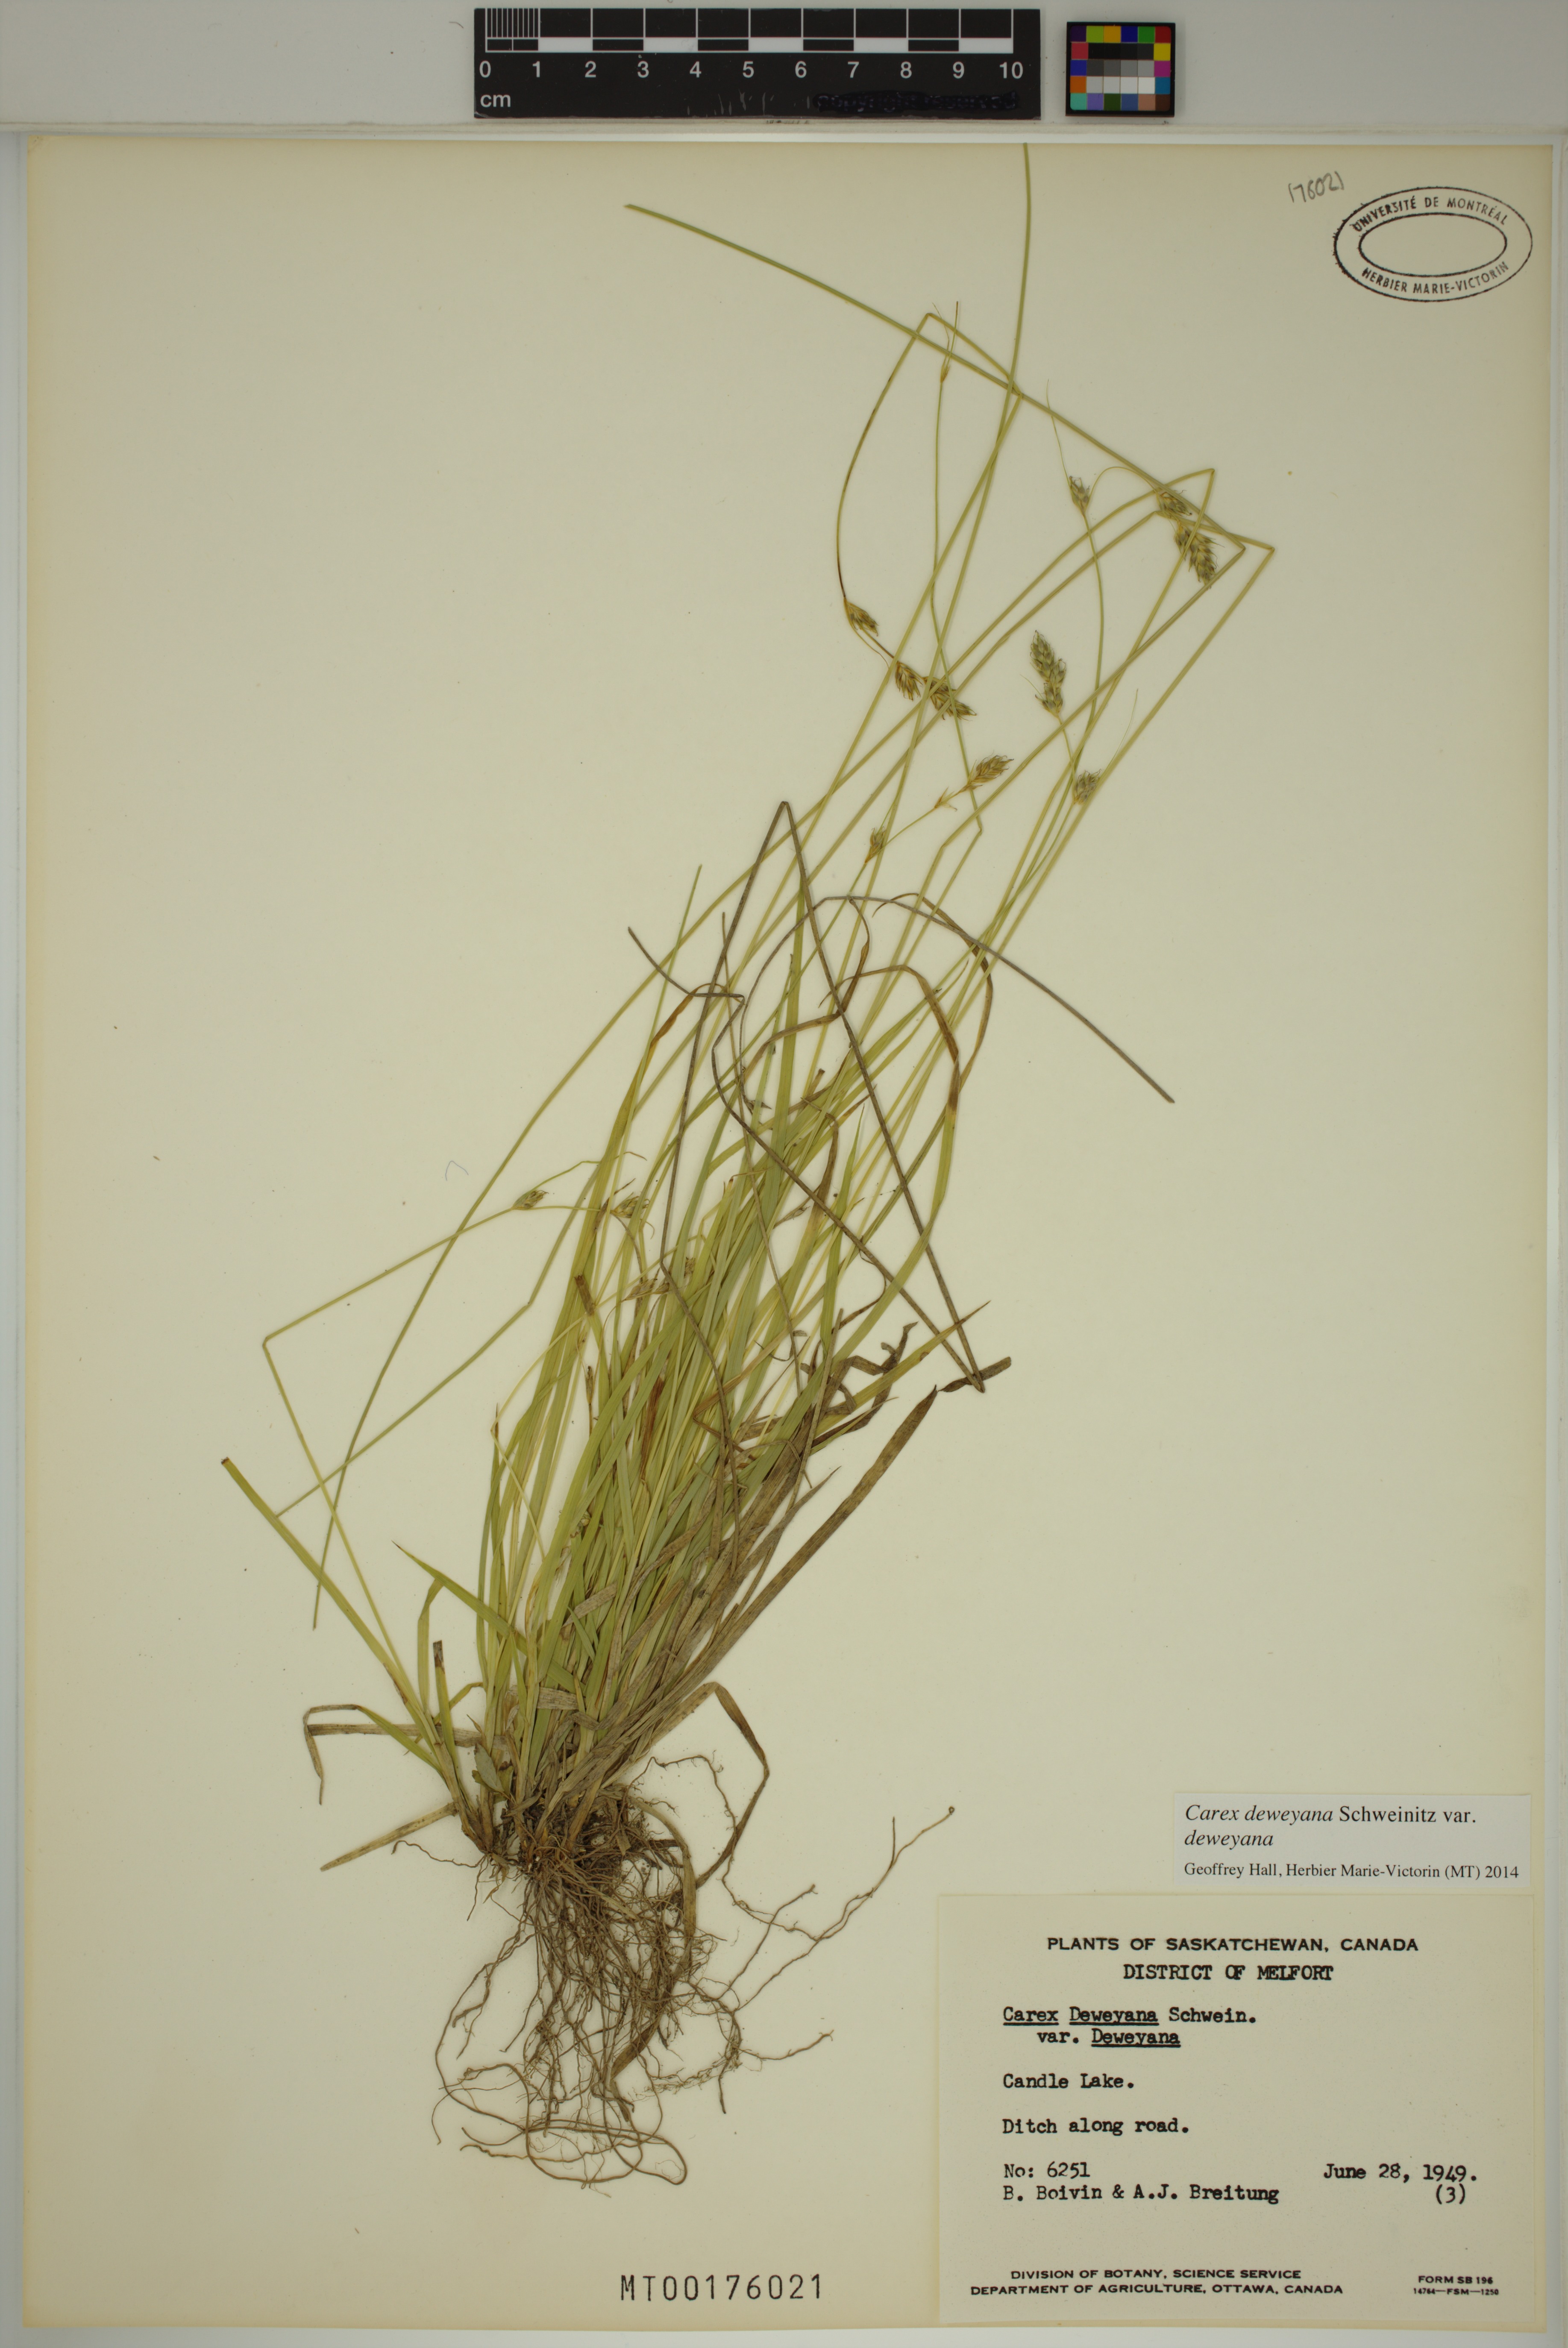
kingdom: Plantae
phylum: Tracheophyta
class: Liliopsida
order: Poales
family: Cyperaceae
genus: Carex
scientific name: Carex deweyana
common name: Dewey's sedge
